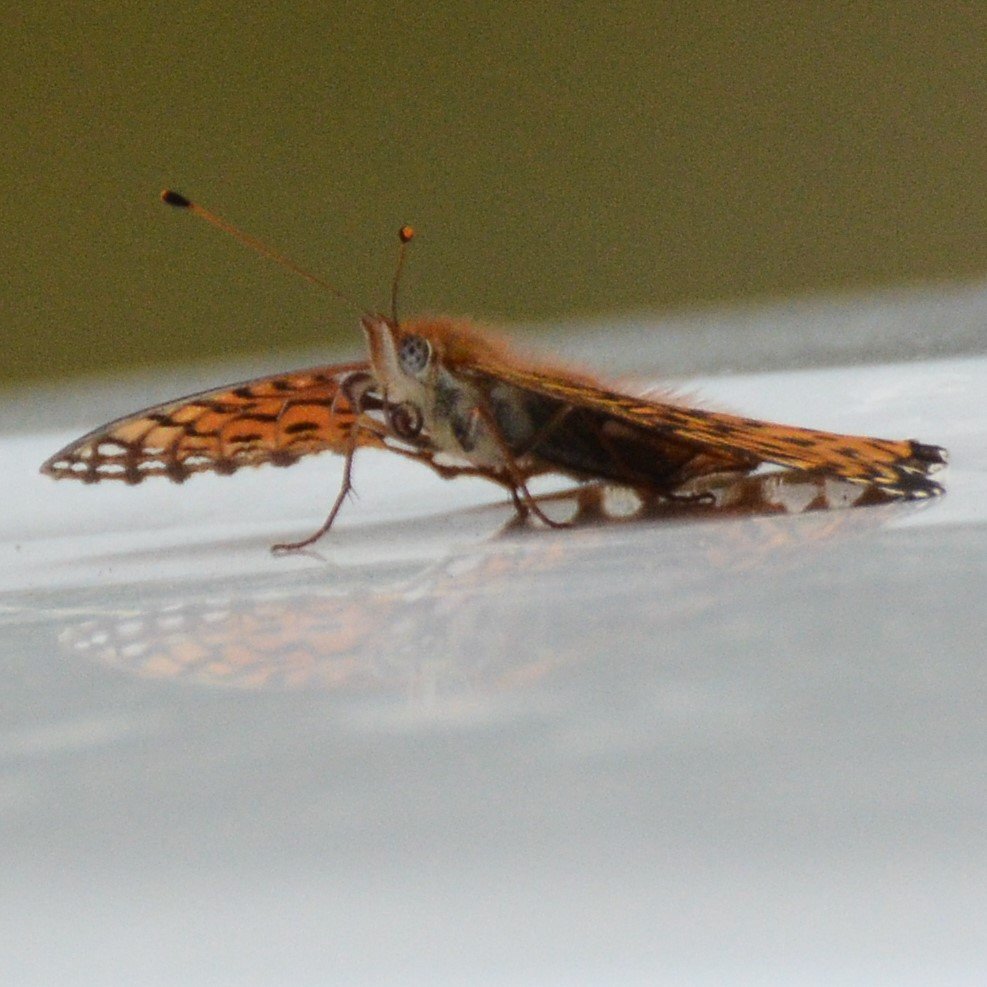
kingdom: Animalia
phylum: Arthropoda
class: Insecta
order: Lepidoptera
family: Nymphalidae
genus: Speyeria
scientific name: Speyeria atlantis
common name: Atlantis Fritillary
